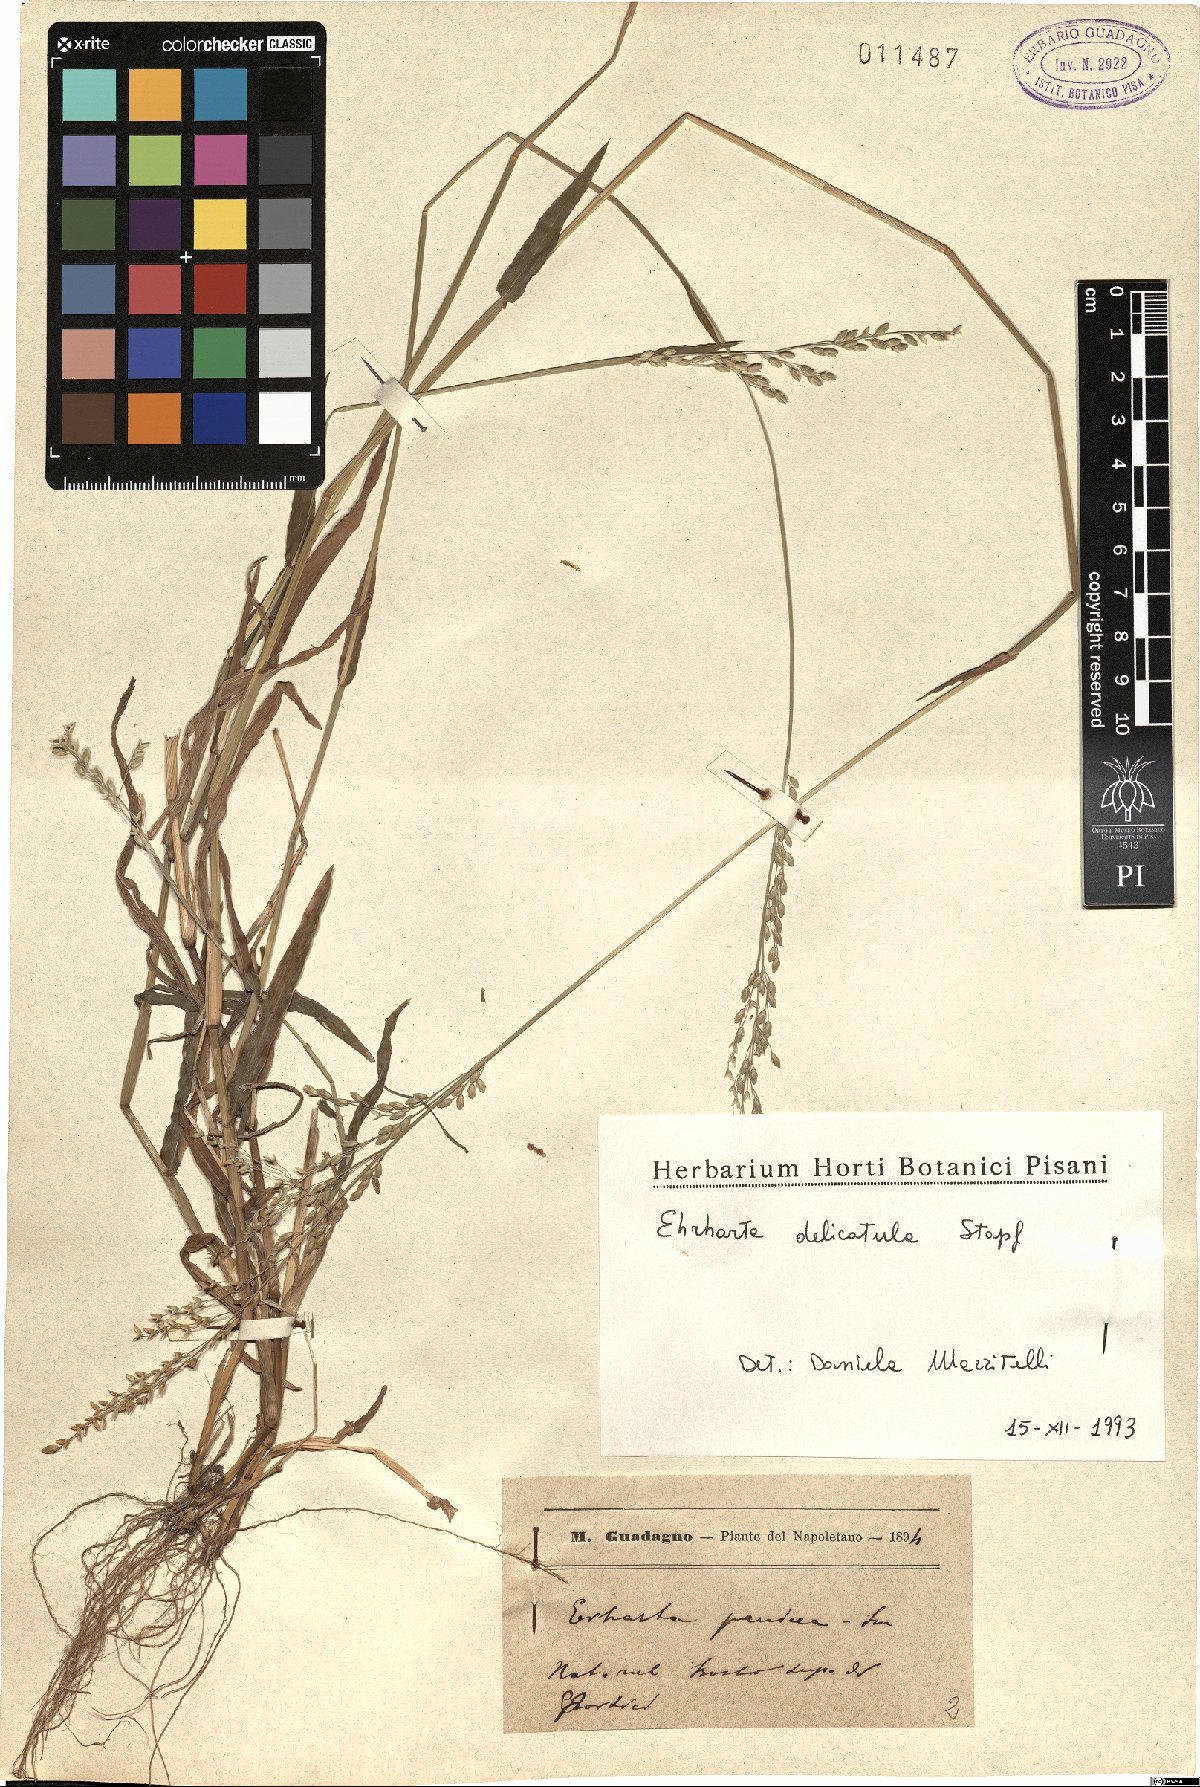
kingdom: Plantae
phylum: Tracheophyta
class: Liliopsida
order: Poales
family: Poaceae
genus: Ehrharta
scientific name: Ehrharta delicatula
